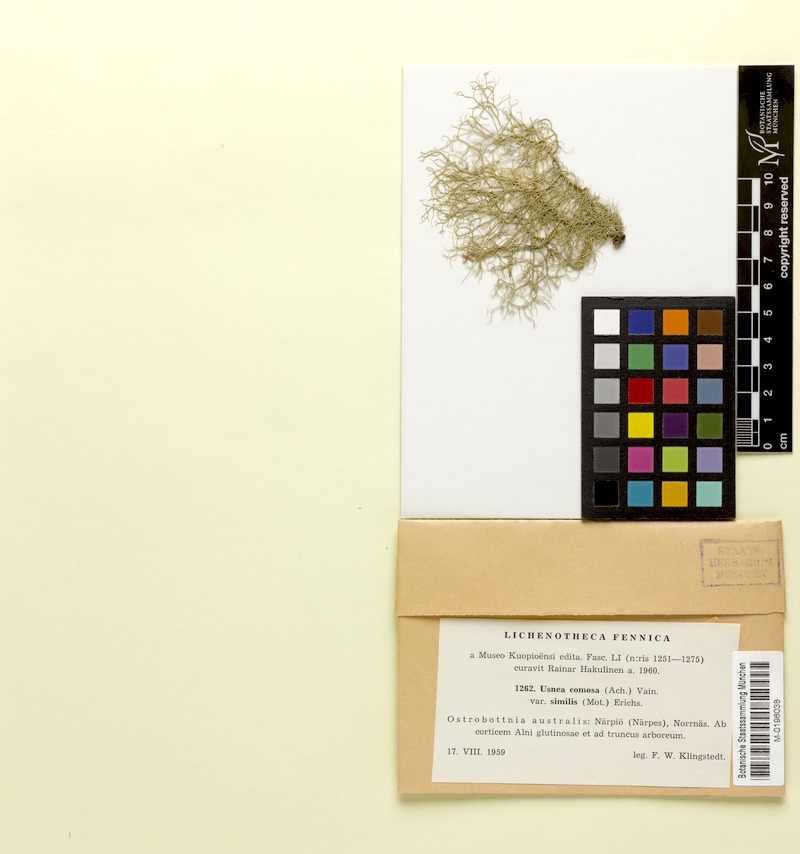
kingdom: Fungi
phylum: Ascomycota
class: Lecanoromycetes
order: Lecanorales
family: Parmeliaceae
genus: Usnea
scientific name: Usnea subfloridana
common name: Boreal beard lichen
